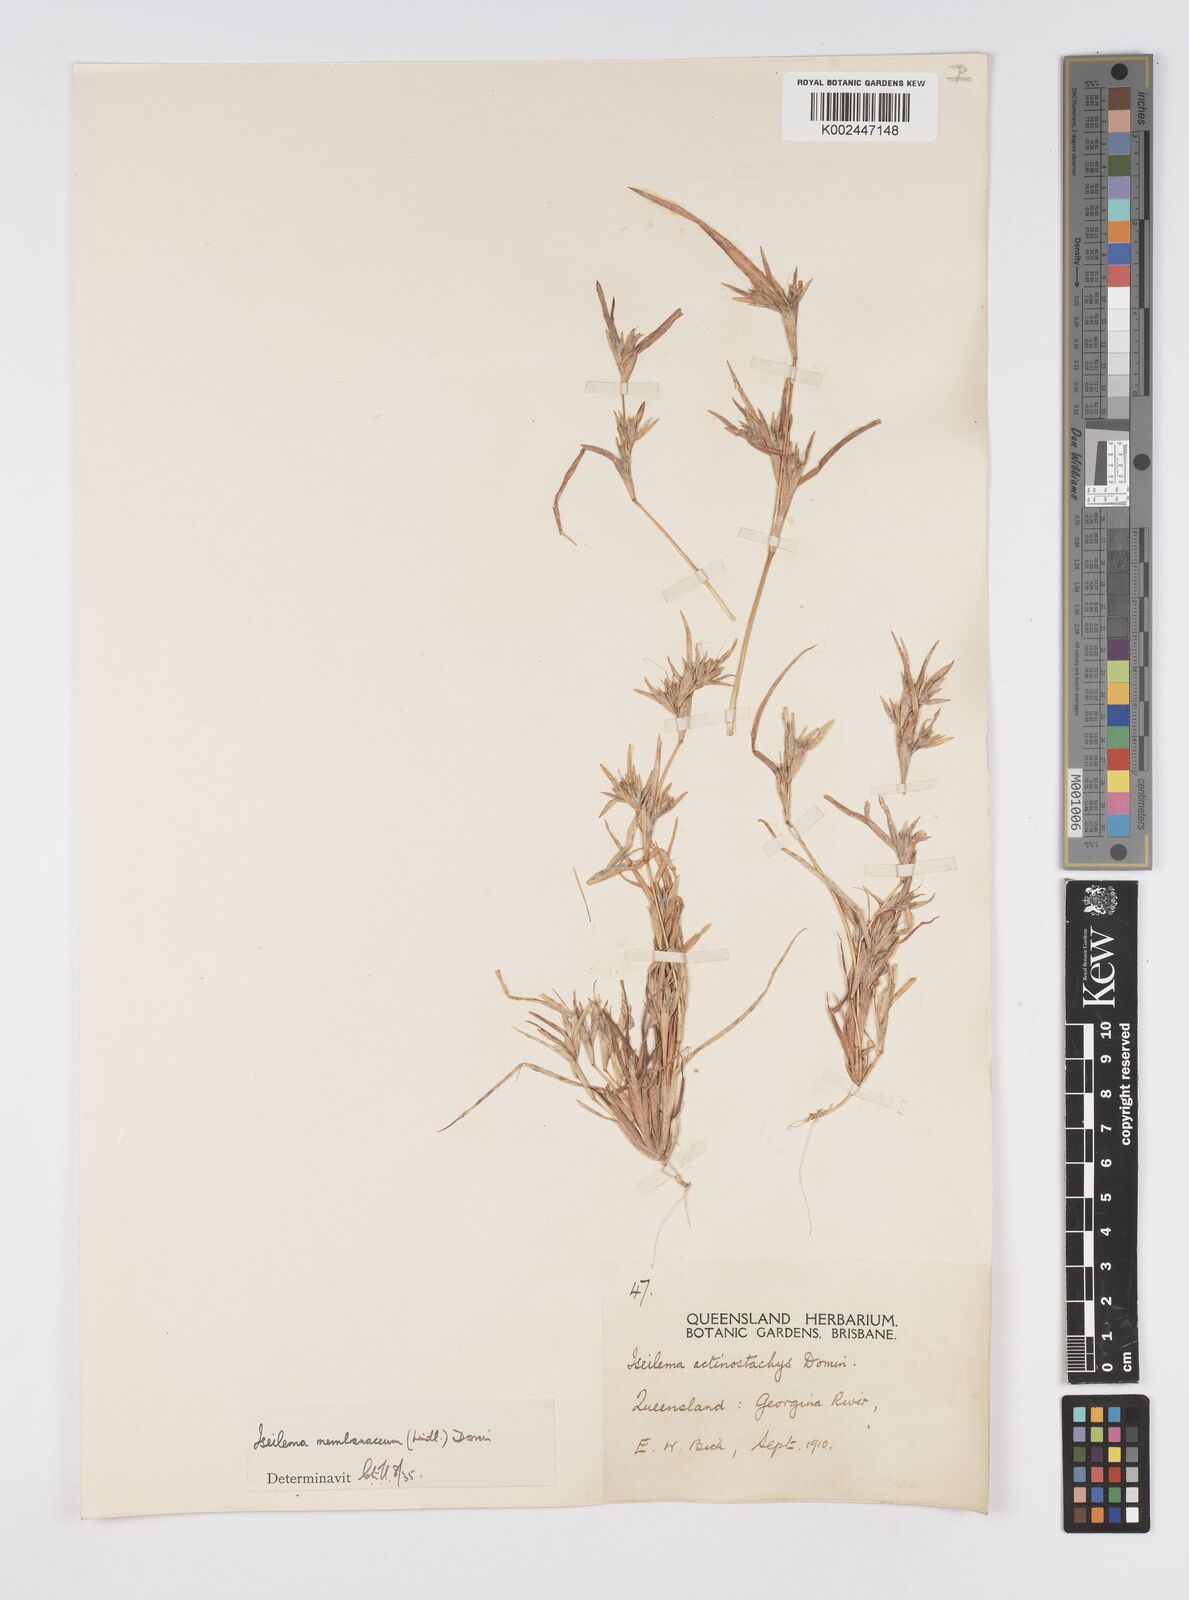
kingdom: Plantae
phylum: Tracheophyta
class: Liliopsida
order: Poales
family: Poaceae
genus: Iseilema
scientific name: Iseilema membranaceum
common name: Small flinders grass
